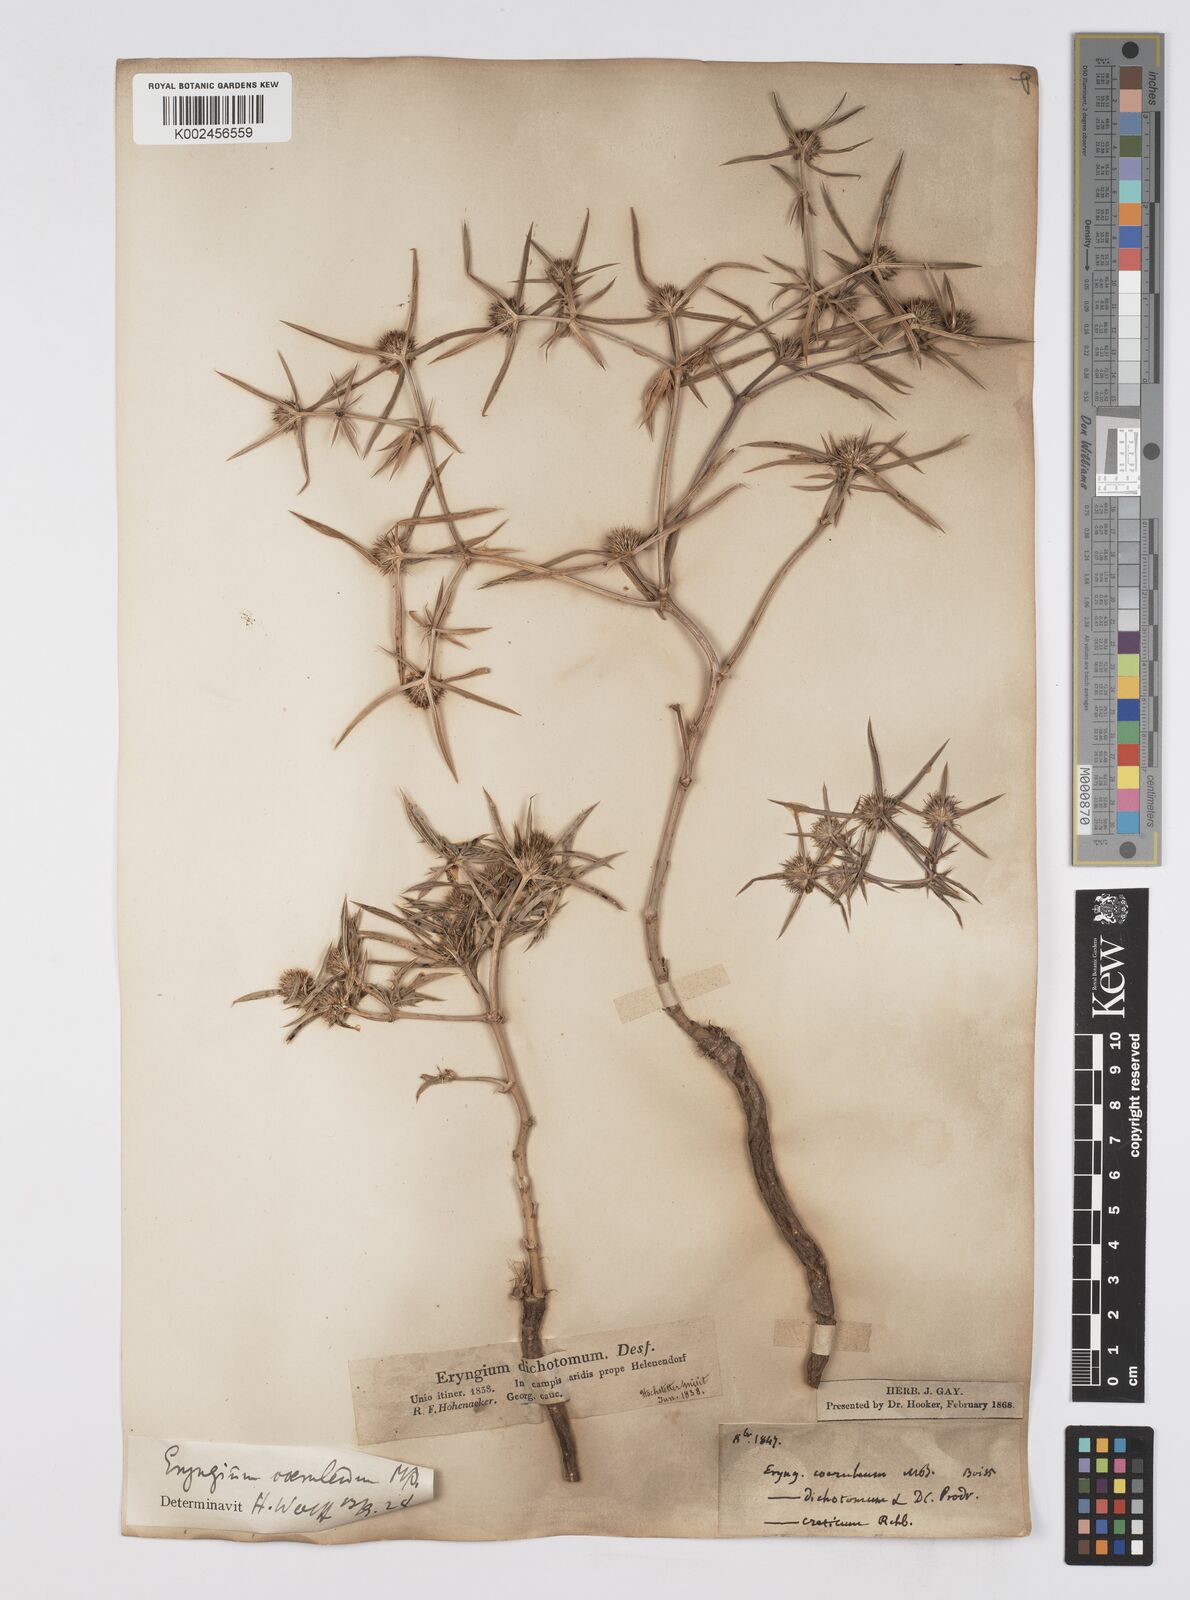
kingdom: Plantae
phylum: Tracheophyta
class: Magnoliopsida
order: Apiales
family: Apiaceae
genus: Eryngium
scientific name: Eryngium caeruleum
